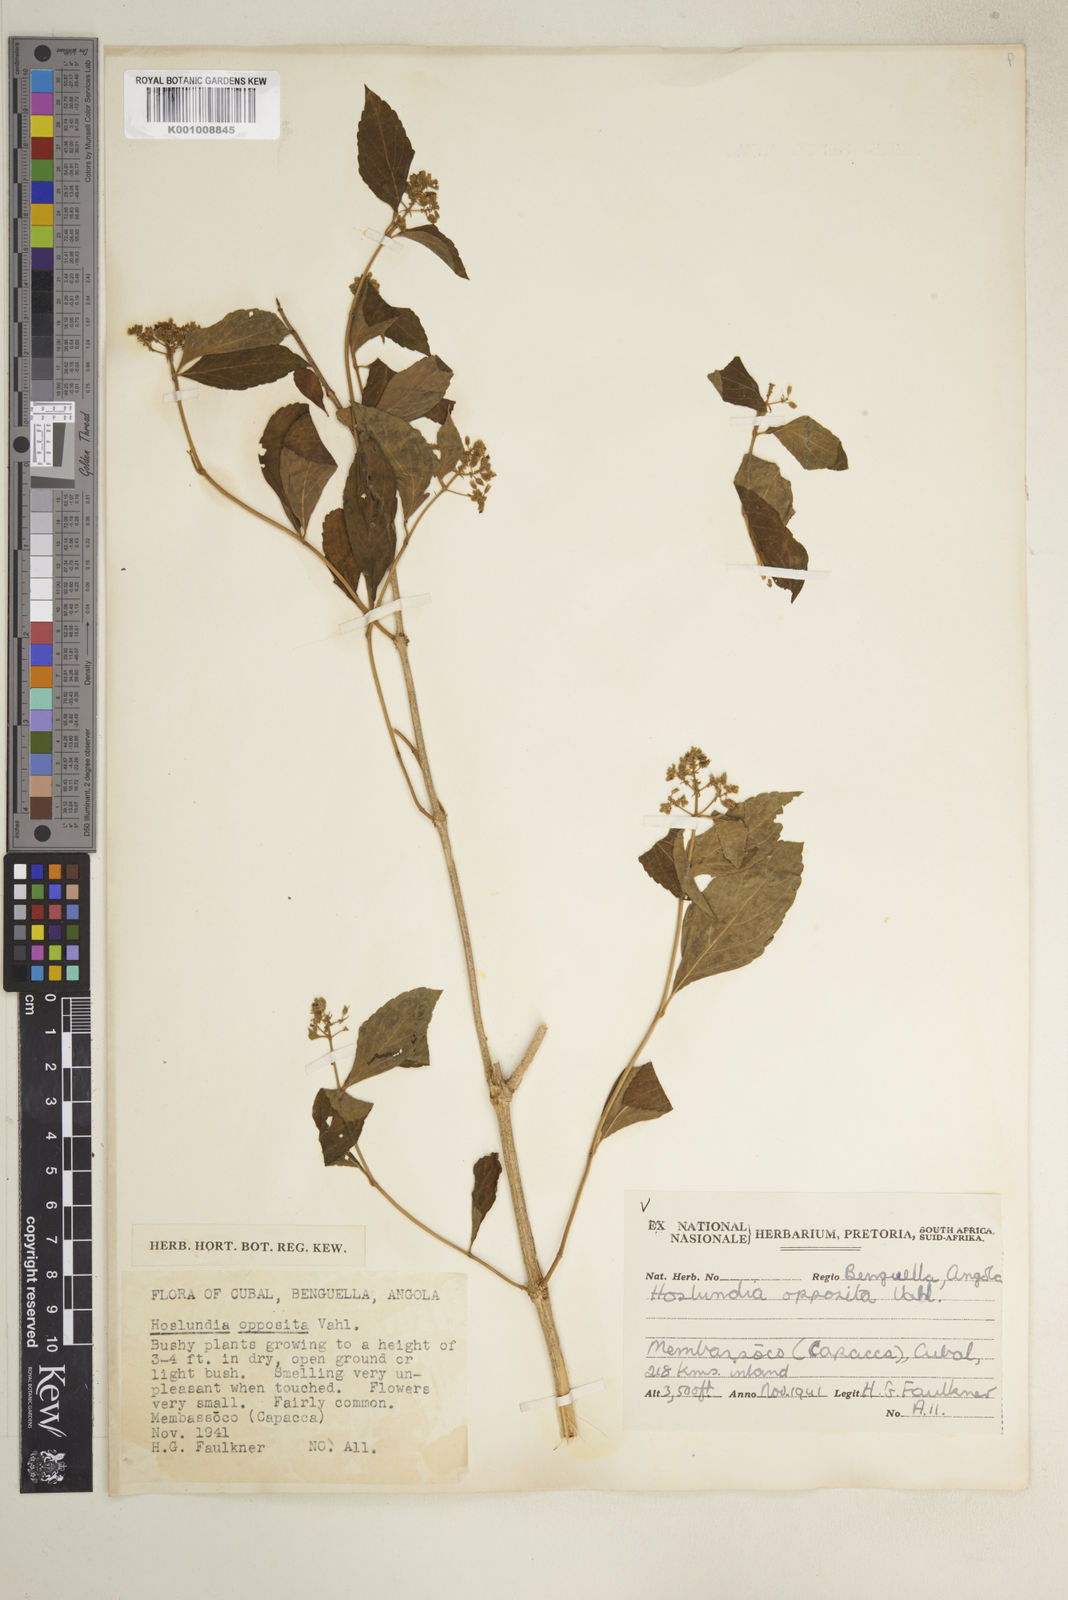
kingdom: Plantae
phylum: Tracheophyta
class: Magnoliopsida
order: Lamiales
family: Lamiaceae
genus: Hoslundia
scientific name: Hoslundia opposita
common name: Kamyuye
